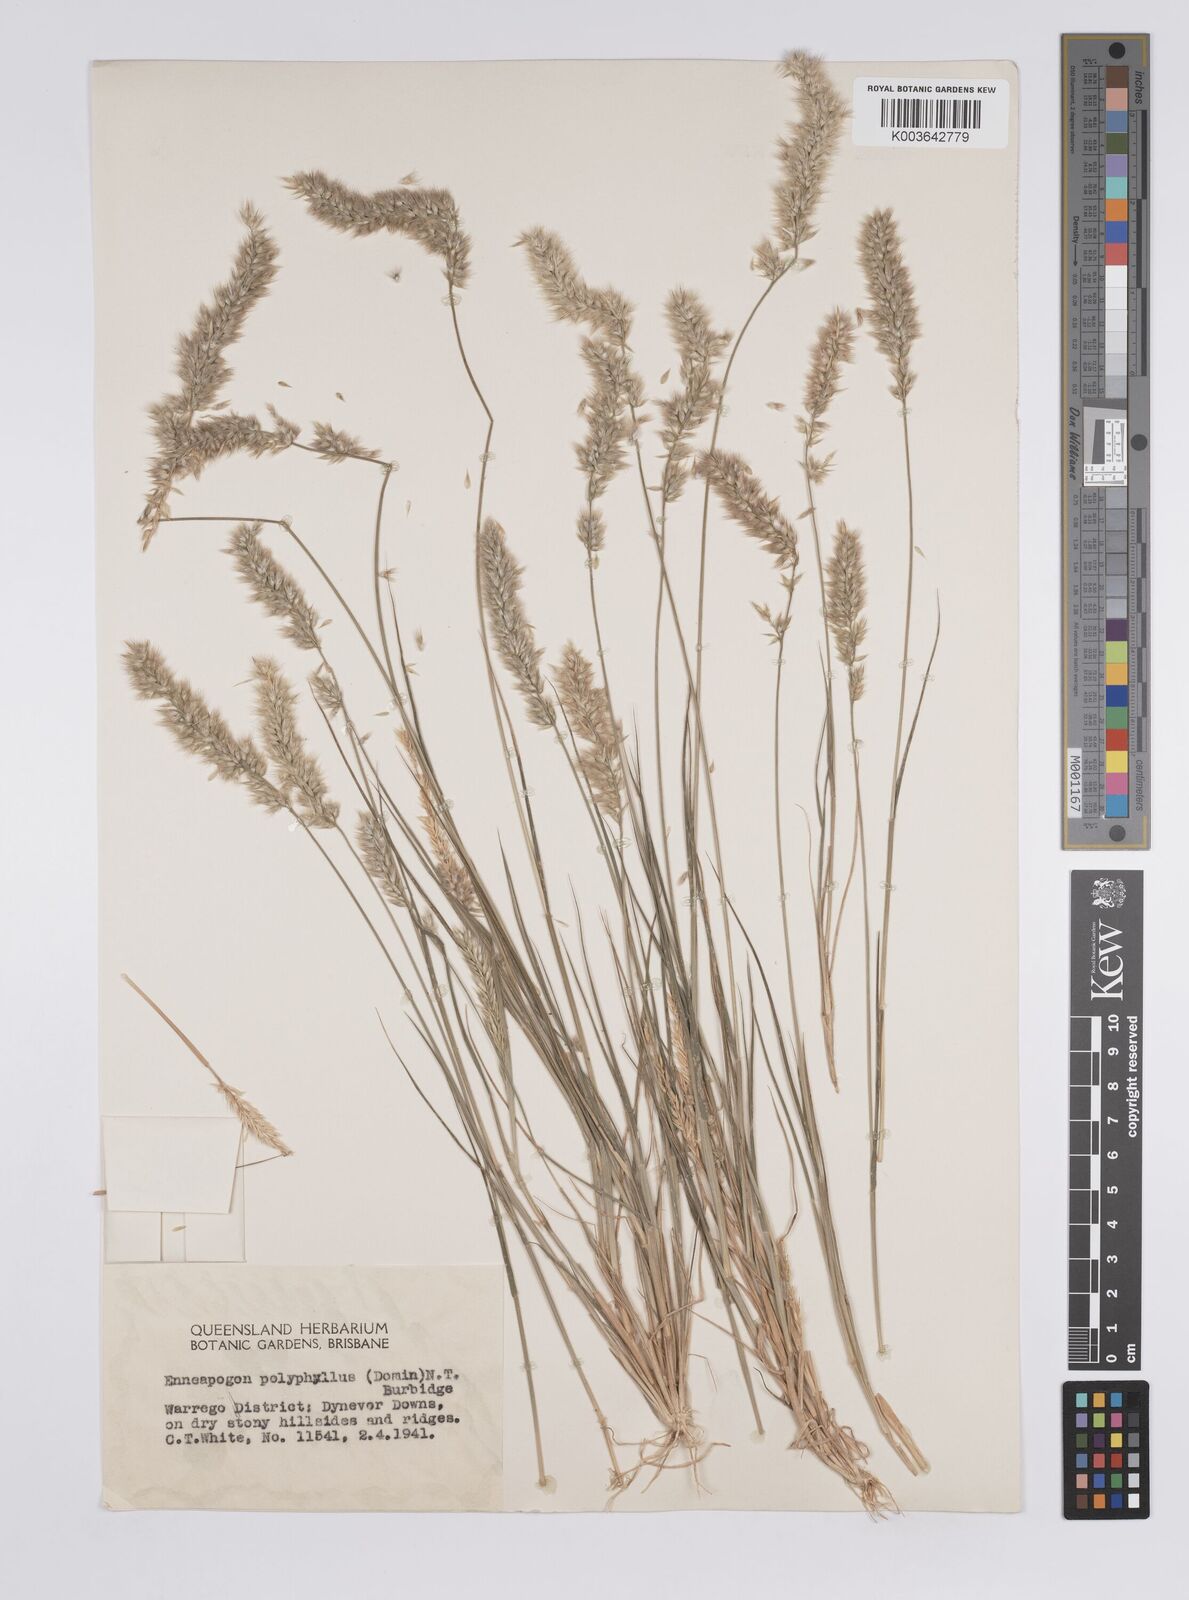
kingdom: Plantae
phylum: Tracheophyta
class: Liliopsida
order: Poales
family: Poaceae
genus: Enneapogon
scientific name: Enneapogon polyphyllus
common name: Leafy nineawn
